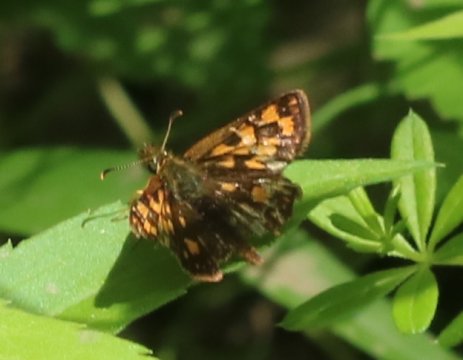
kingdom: Animalia
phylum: Arthropoda
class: Insecta
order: Lepidoptera
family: Hesperiidae
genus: Carterocephalus
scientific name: Carterocephalus palaemon
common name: Chequered Skipper
